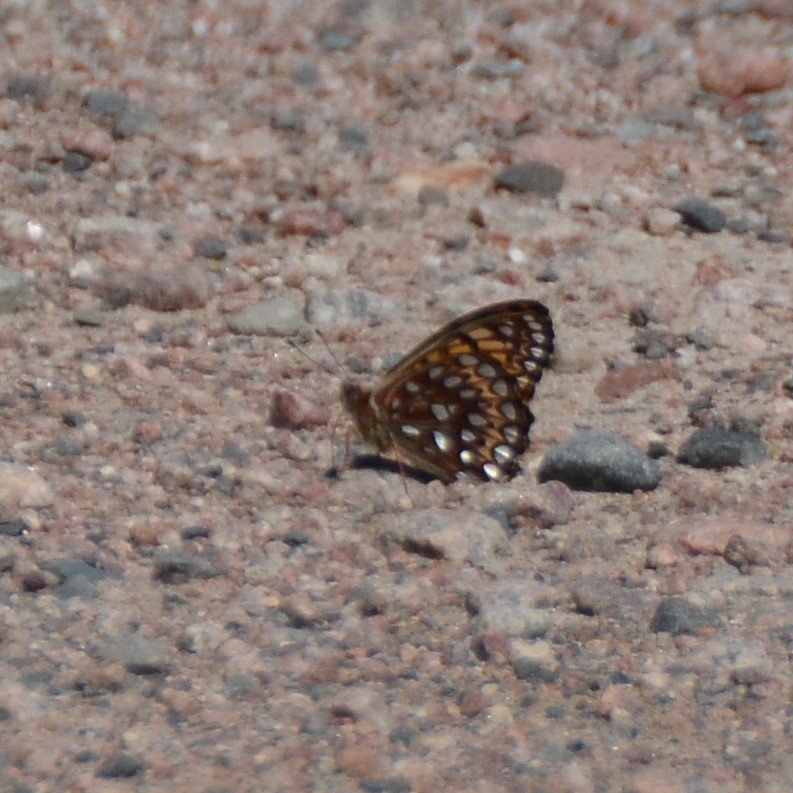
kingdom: Animalia
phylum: Arthropoda
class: Insecta
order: Lepidoptera
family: Nymphalidae
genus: Speyeria
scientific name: Speyeria atlantis
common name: Atlantis Fritillary
